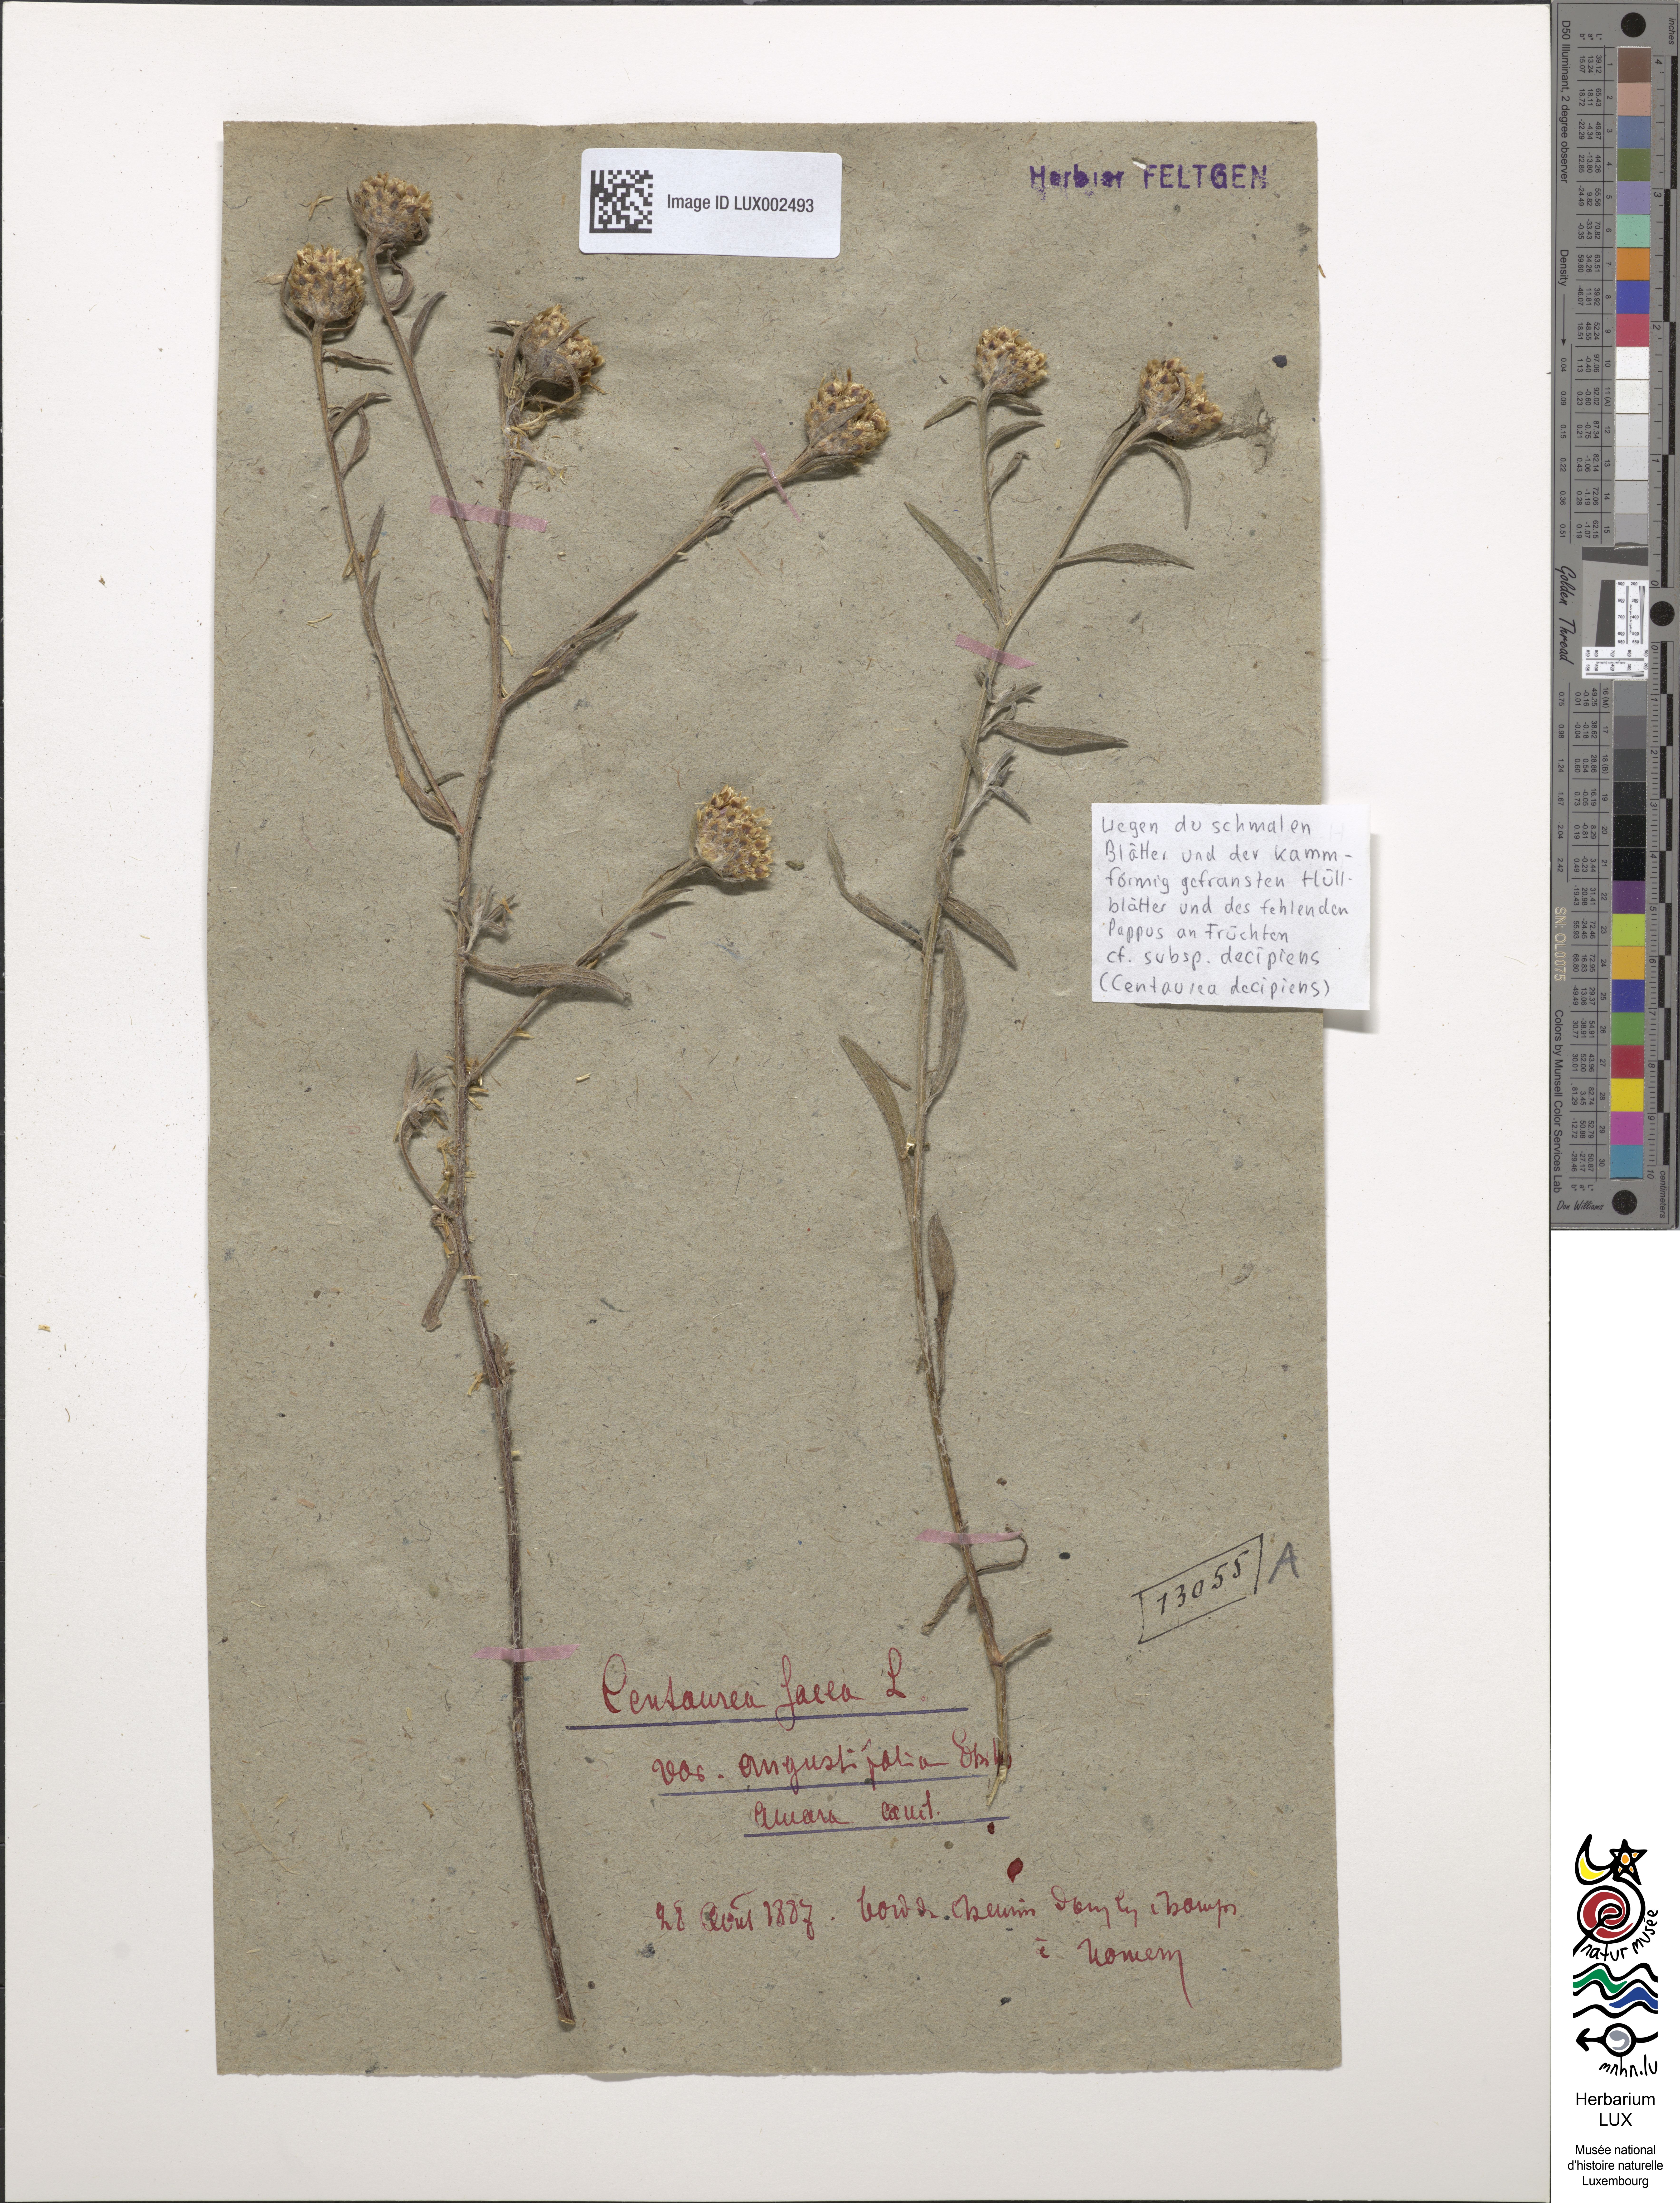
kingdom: Plantae
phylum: Tracheophyta
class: Magnoliopsida
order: Asterales
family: Asteraceae
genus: Centaurea
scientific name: Centaurea pannonica
